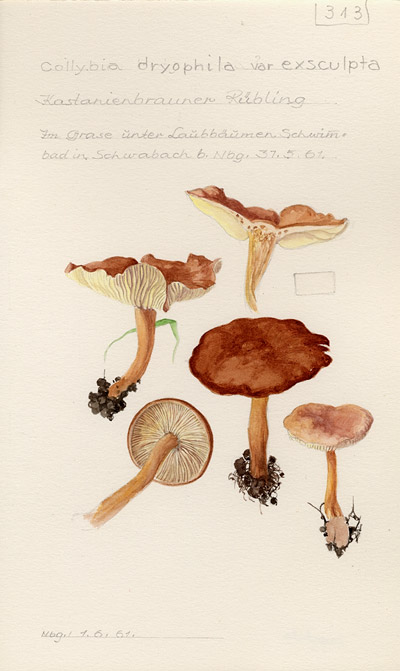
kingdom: Fungi
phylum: Basidiomycota
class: Agaricomycetes
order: Agaricales
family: Omphalotaceae
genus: Gymnopus
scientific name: Gymnopus dryophilus
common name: Penny top
